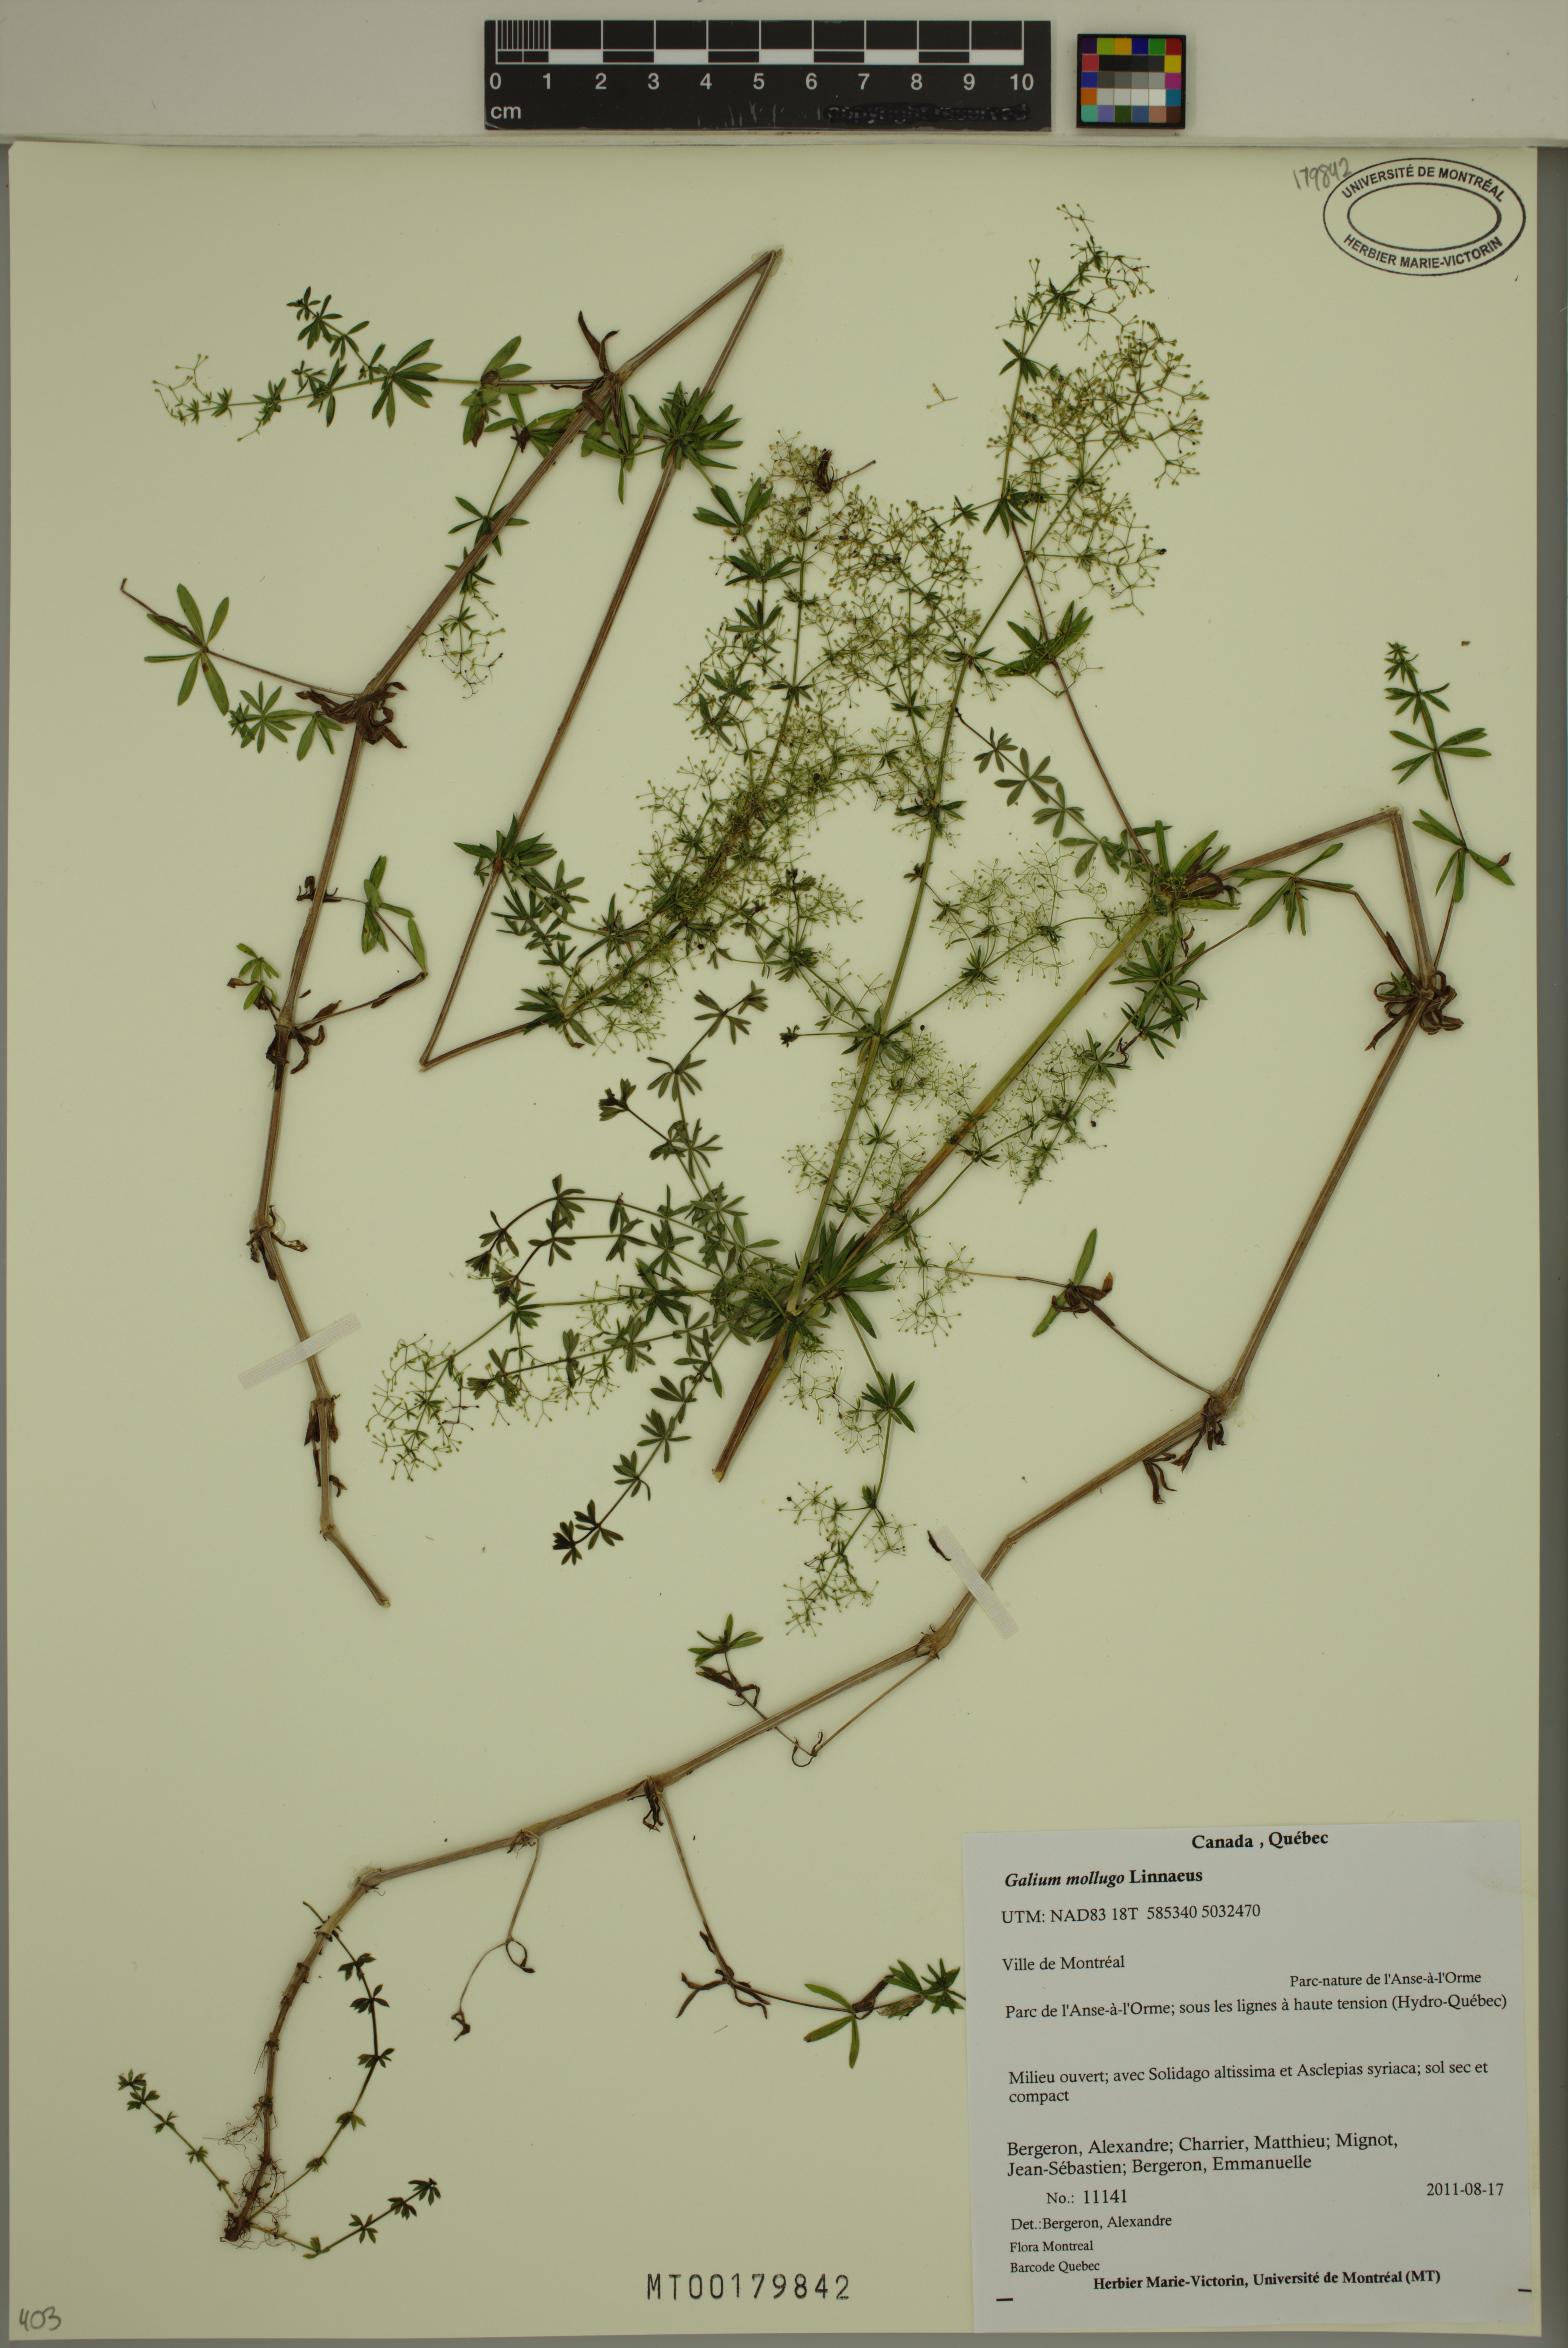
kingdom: Plantae
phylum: Tracheophyta
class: Magnoliopsida
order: Gentianales
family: Rubiaceae
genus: Galium
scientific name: Galium mollugo
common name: Hedge bedstraw
